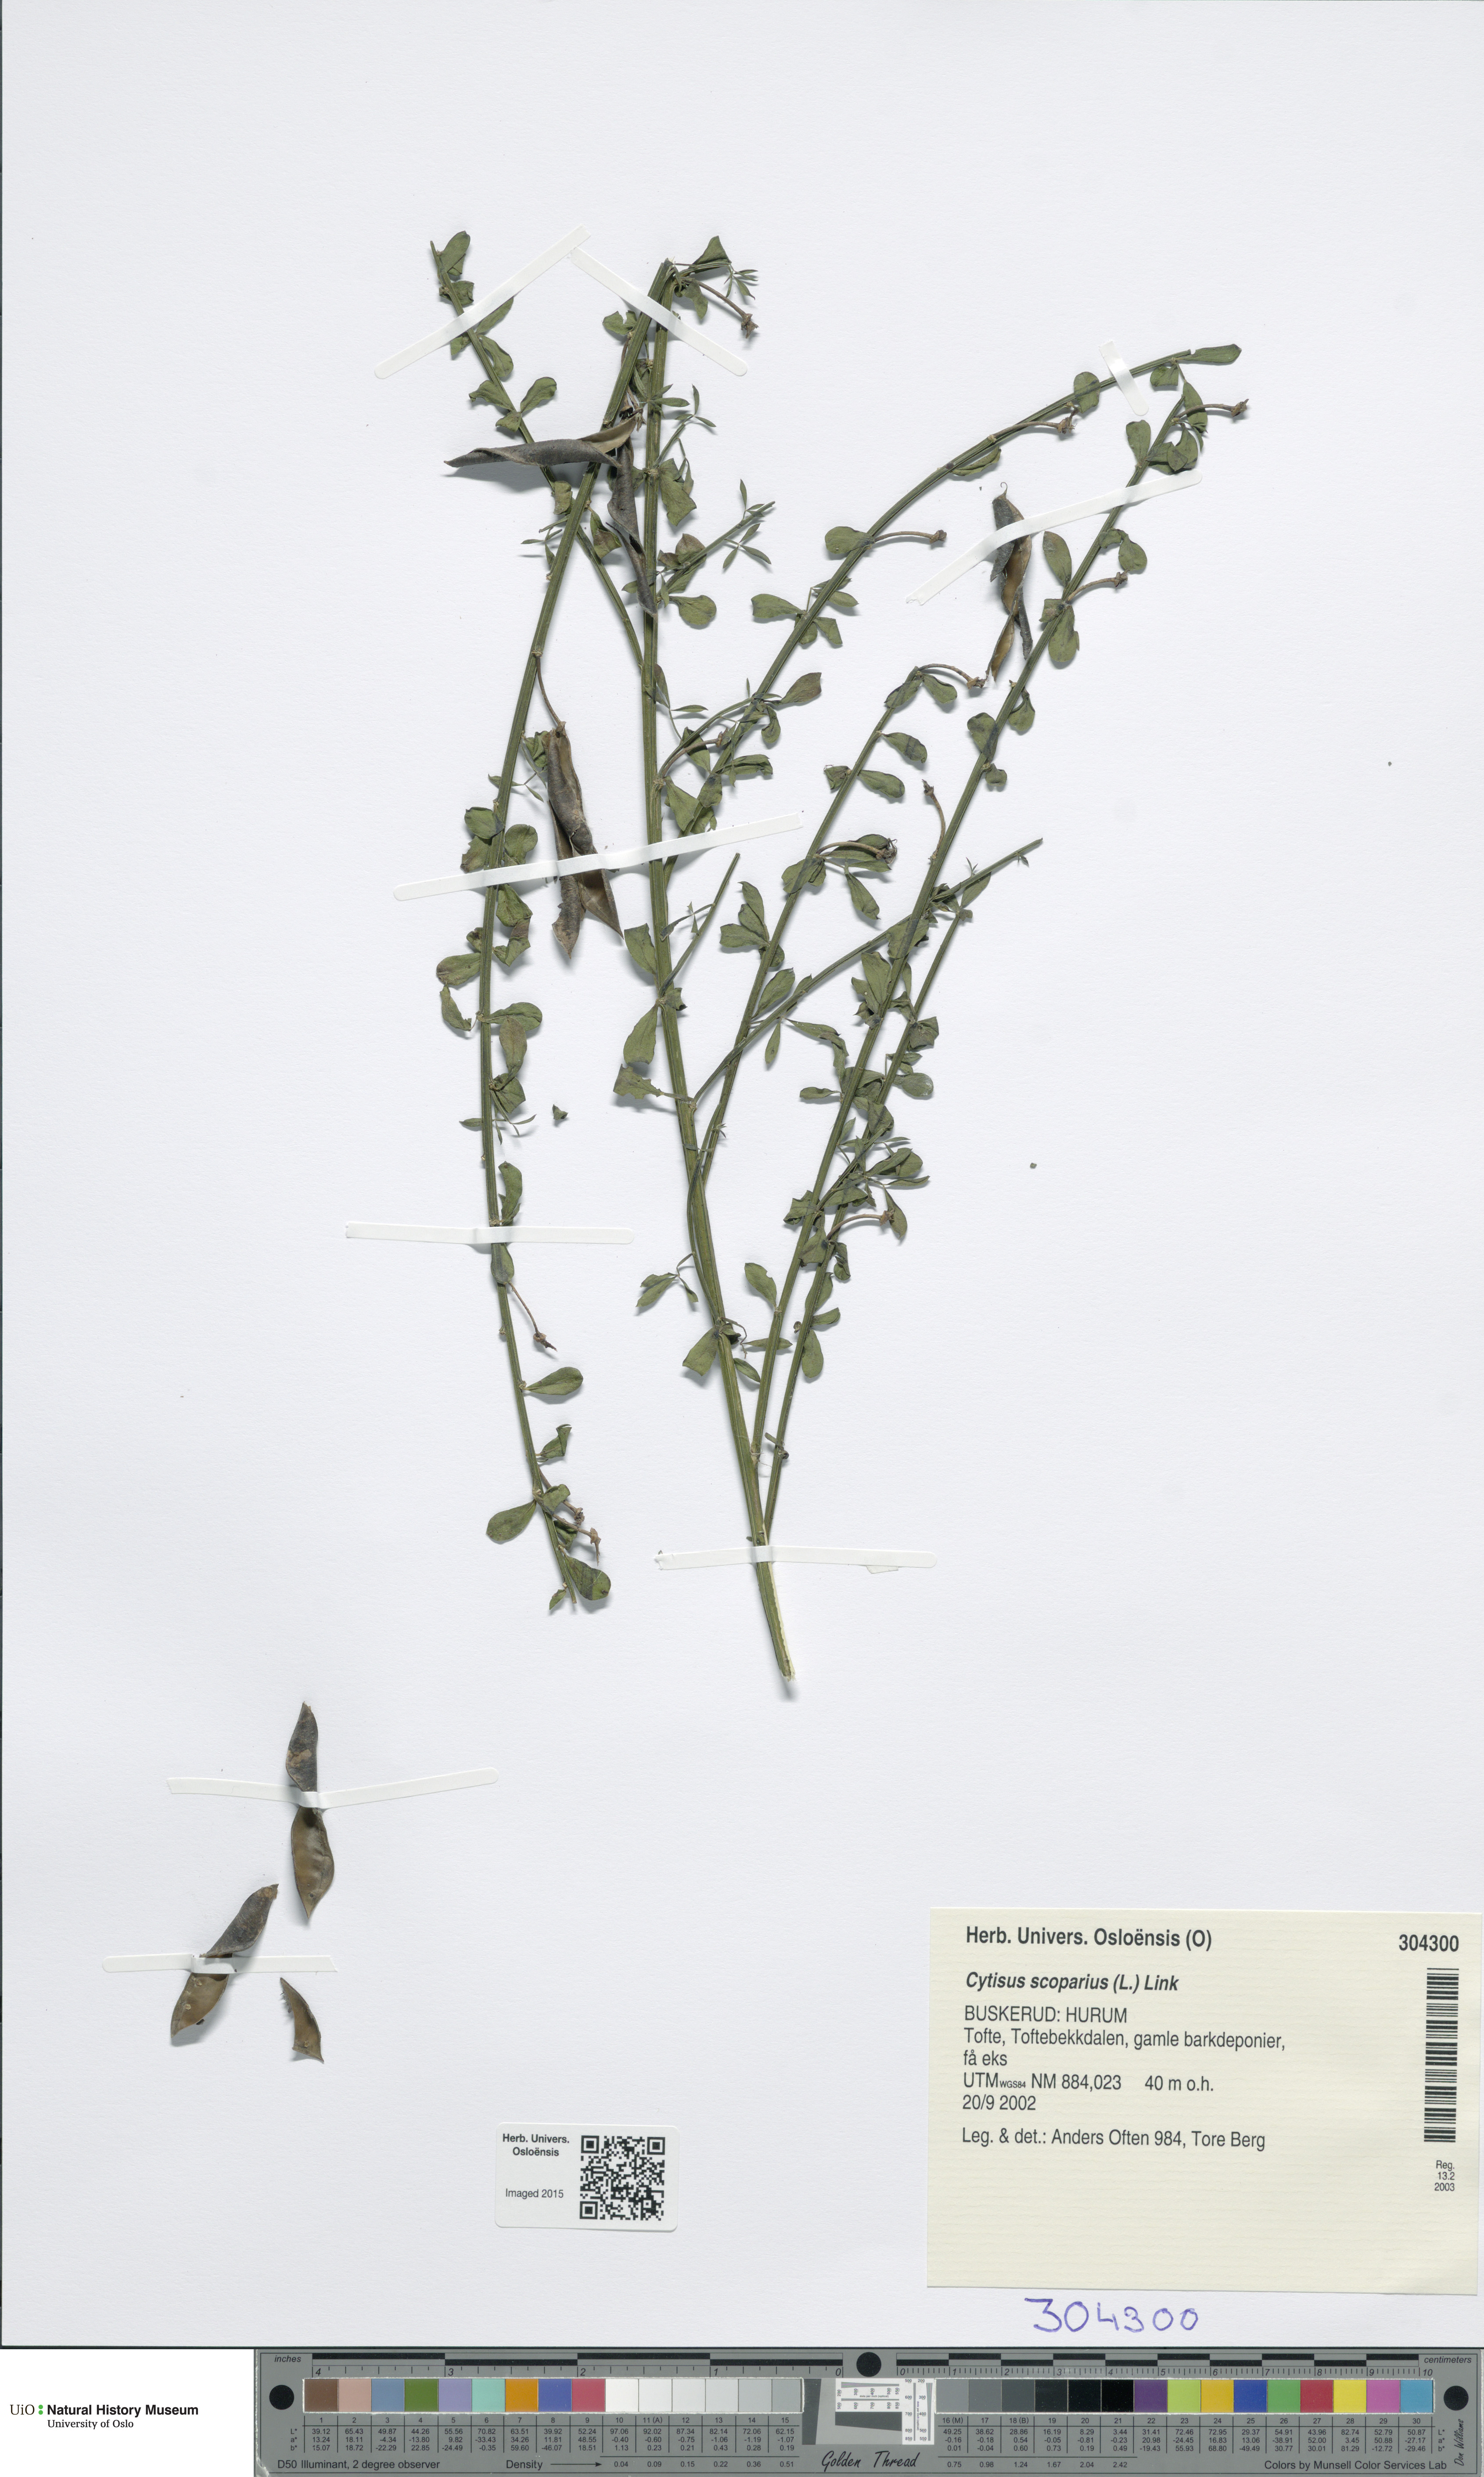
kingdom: Plantae
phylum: Tracheophyta
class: Magnoliopsida
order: Fabales
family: Fabaceae
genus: Cytisus
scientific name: Cytisus scoparius
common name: Scotch broom
